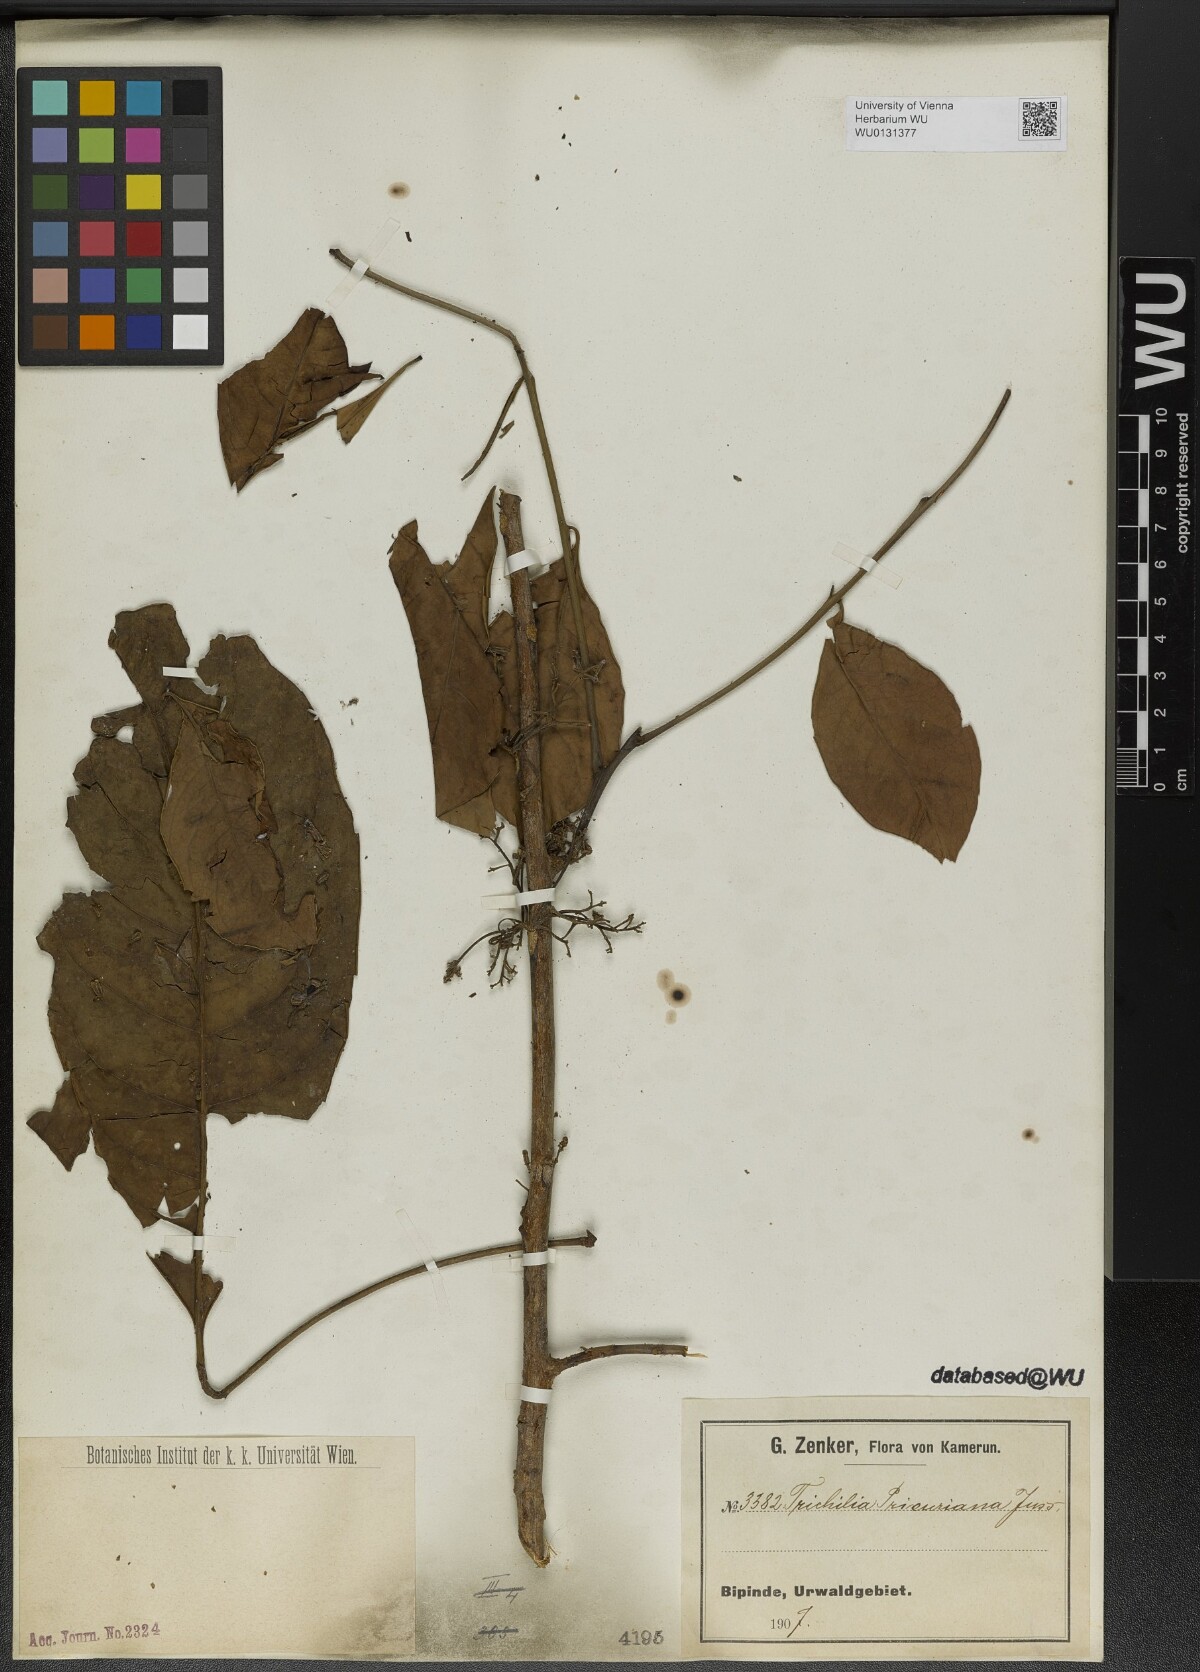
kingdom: Plantae
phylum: Tracheophyta
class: Magnoliopsida
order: Sapindales
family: Meliaceae
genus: Trichilia
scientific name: Trichilia prieuriana
